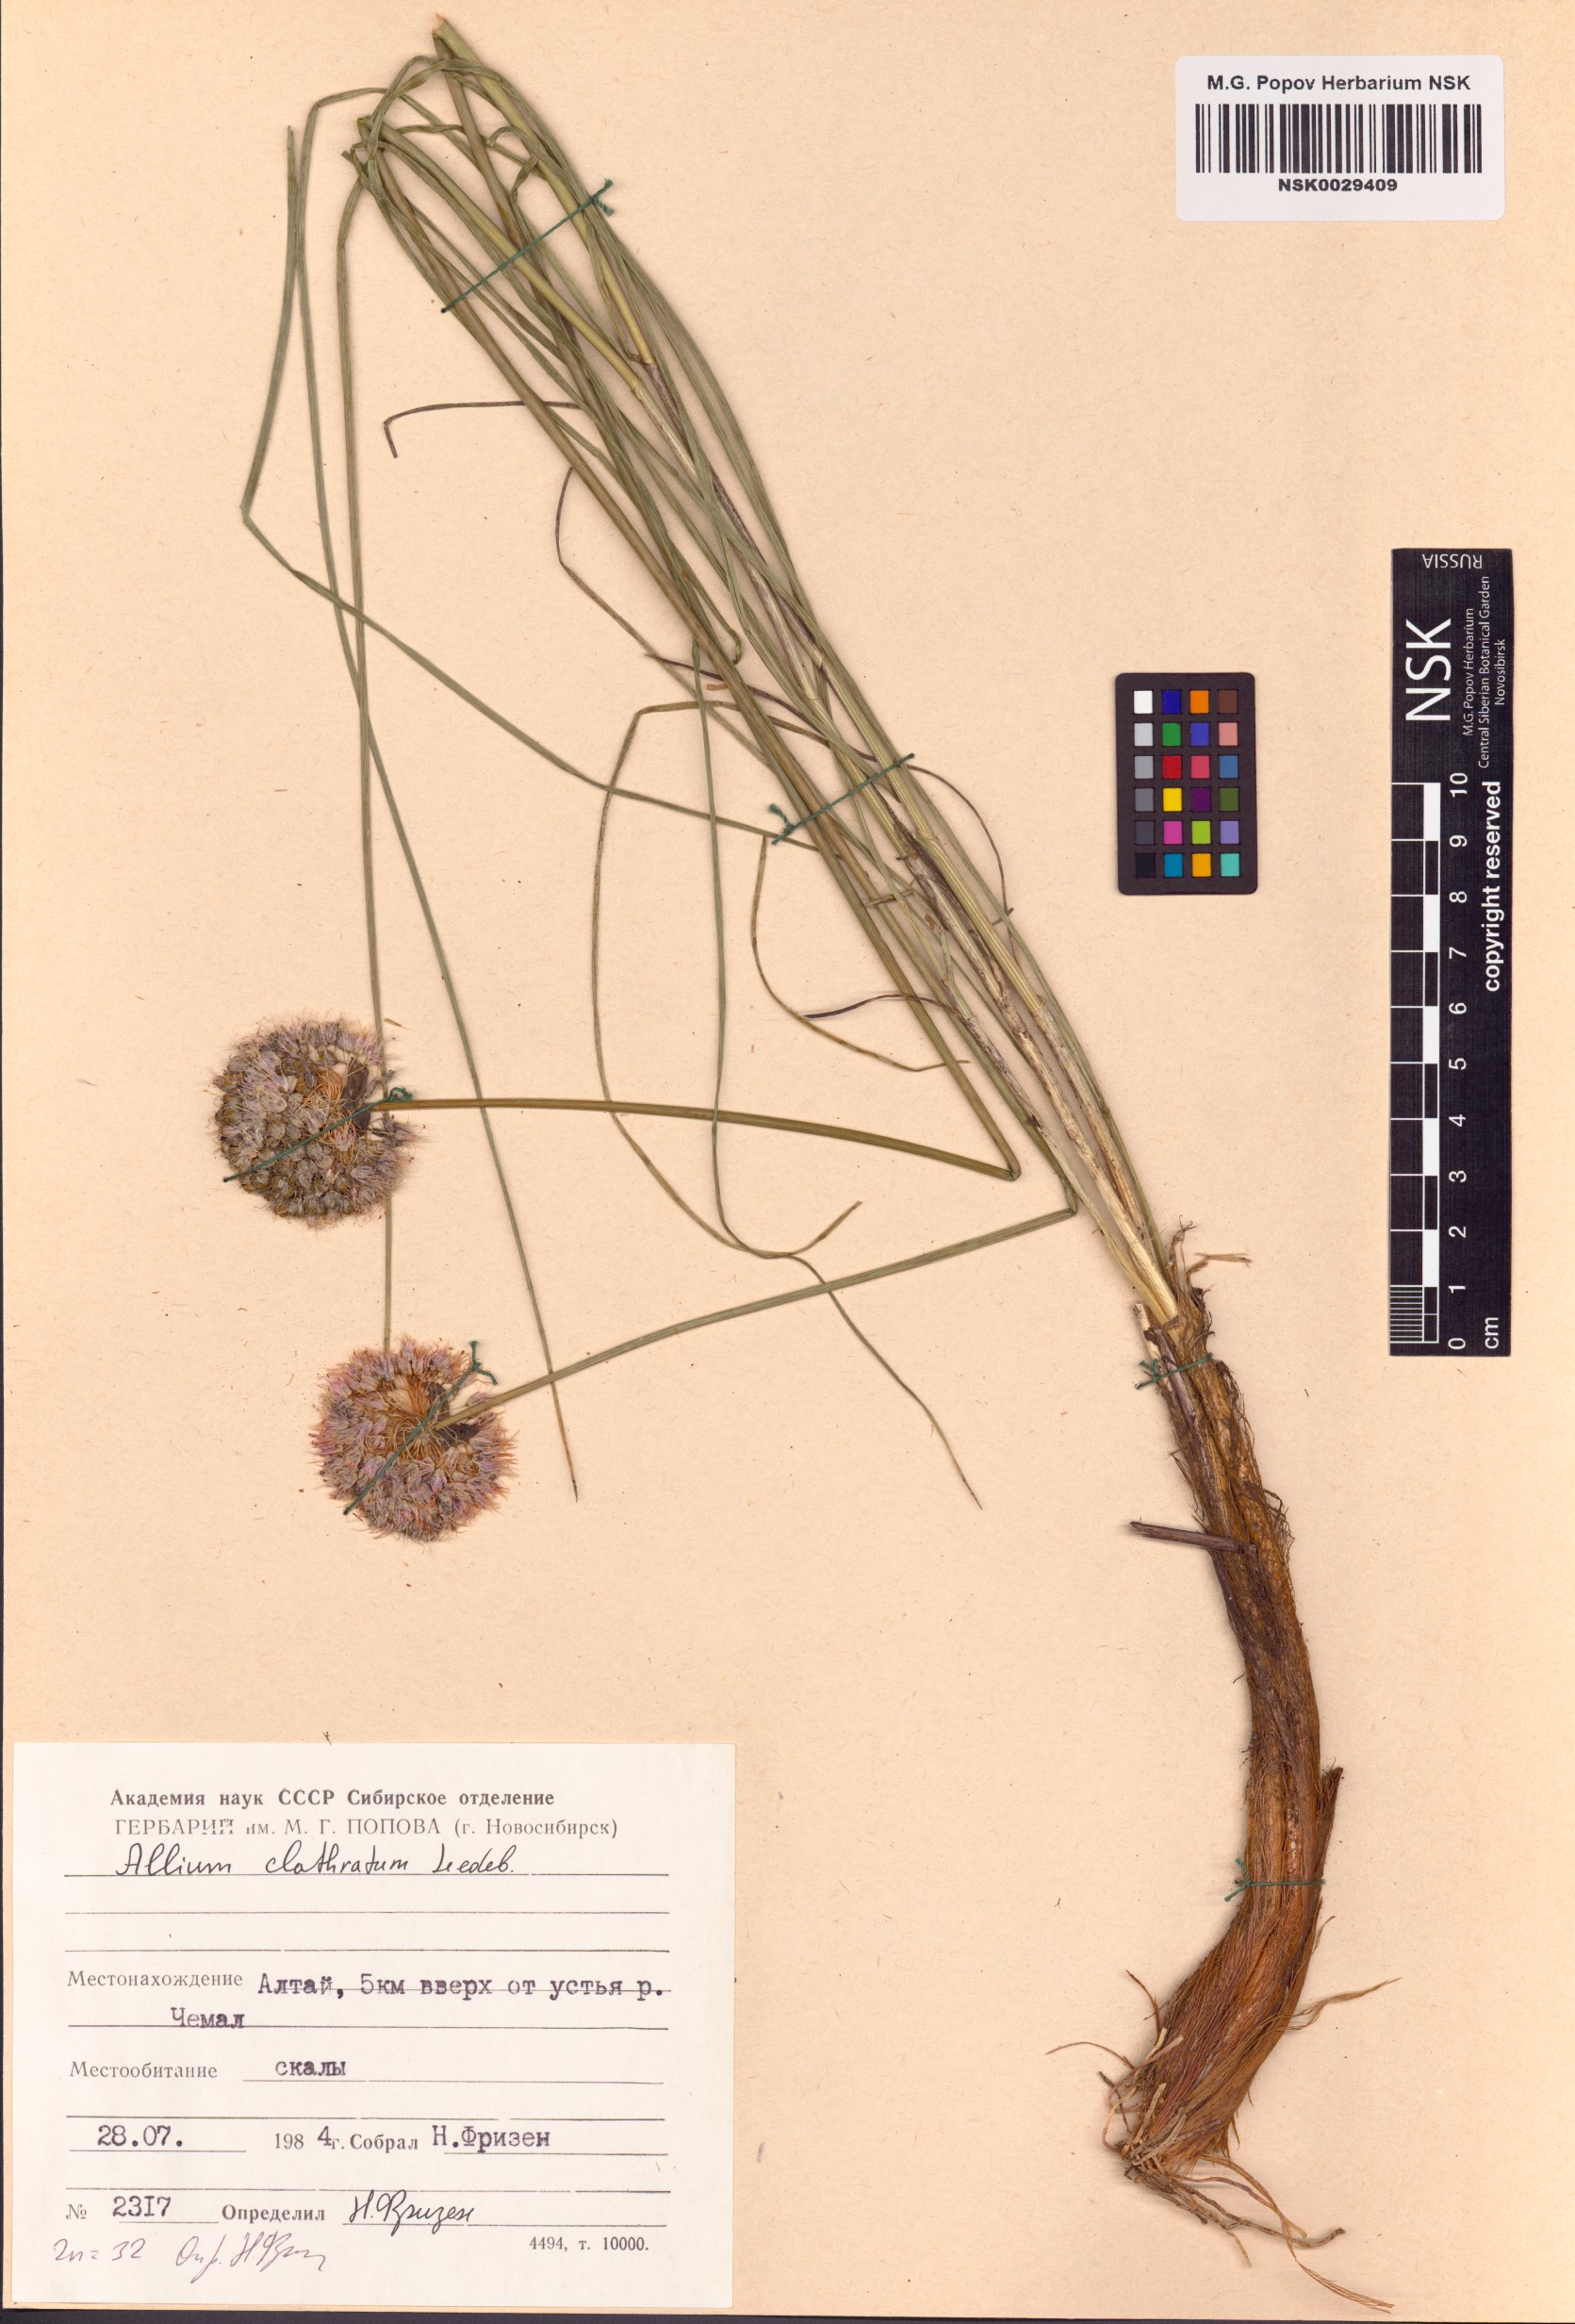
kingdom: Plantae
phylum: Tracheophyta
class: Liliopsida
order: Asparagales
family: Amaryllidaceae
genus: Allium
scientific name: Allium clathratum
